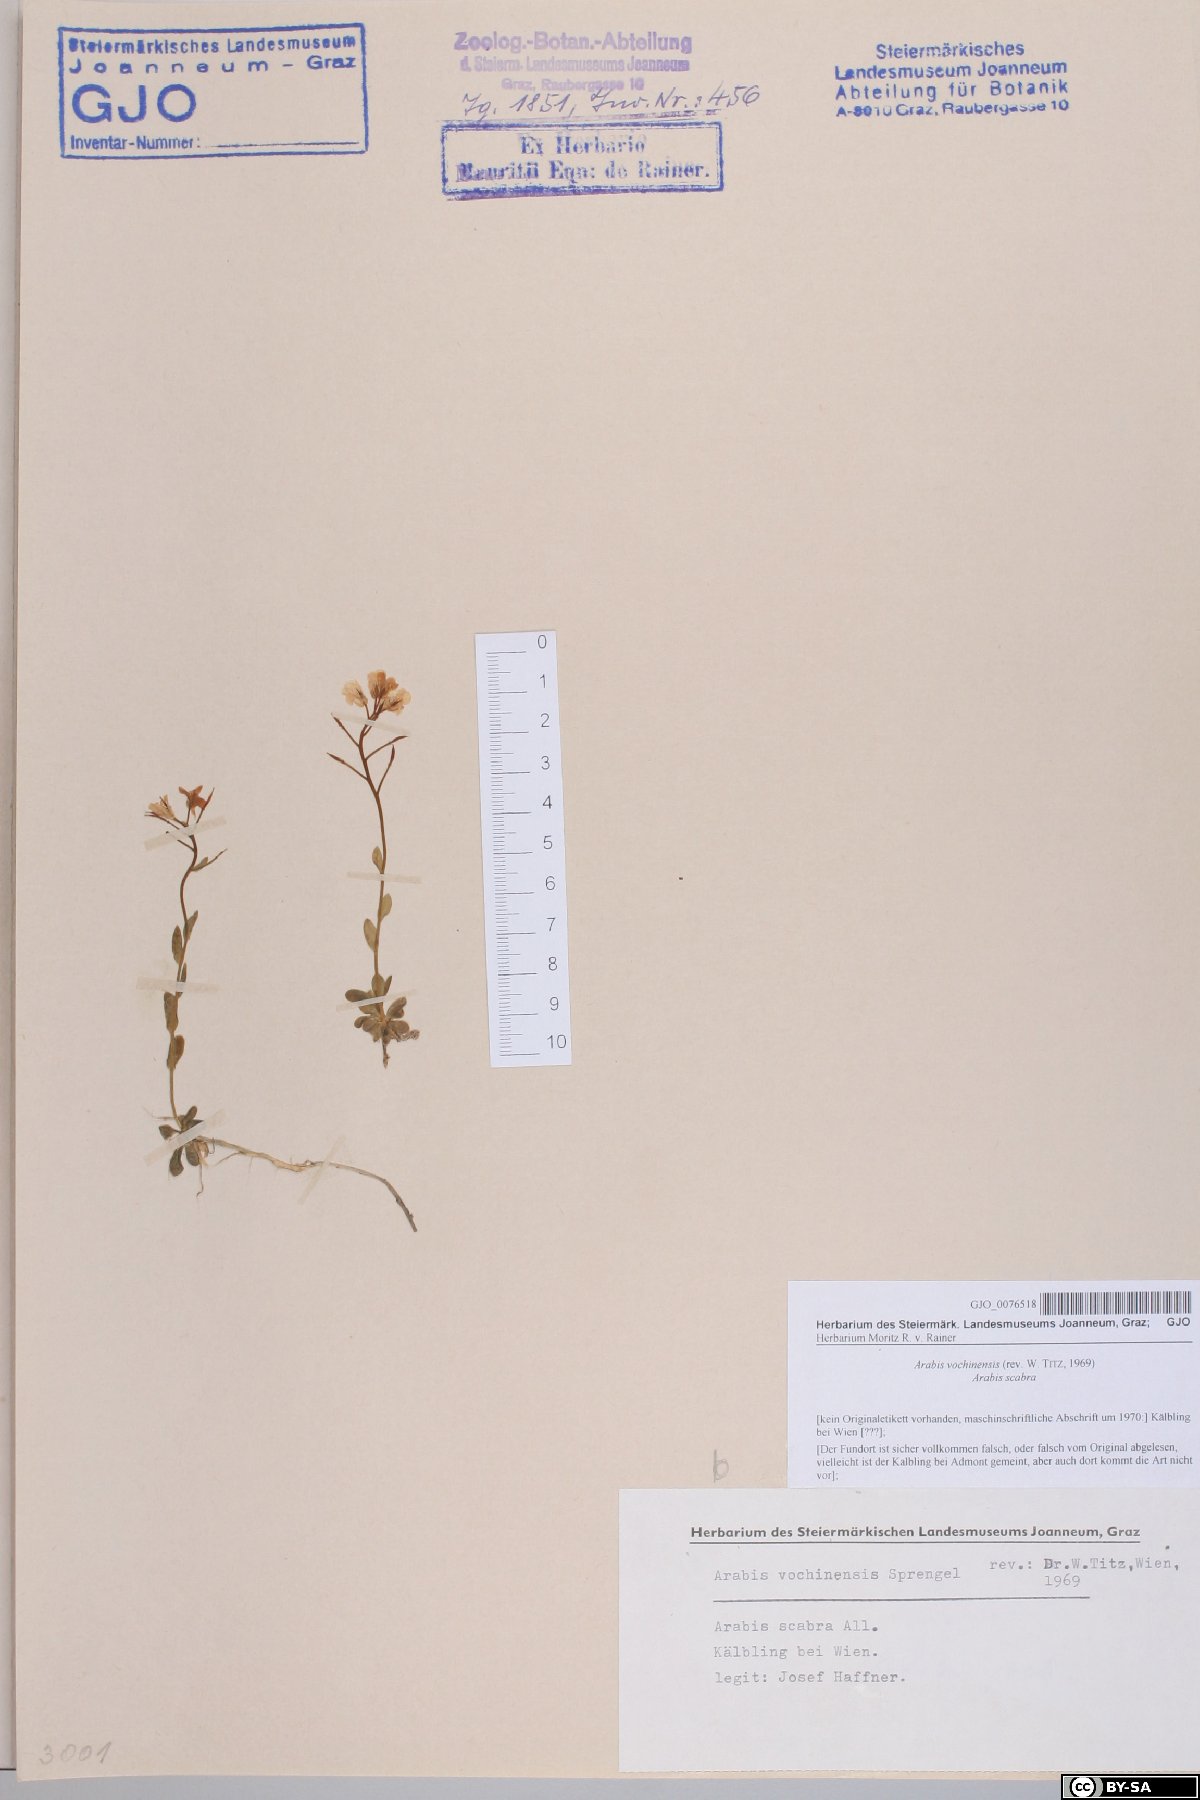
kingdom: Plantae
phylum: Tracheophyta
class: Magnoliopsida
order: Brassicales
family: Brassicaceae
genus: Arabis
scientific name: Arabis vochinensis
